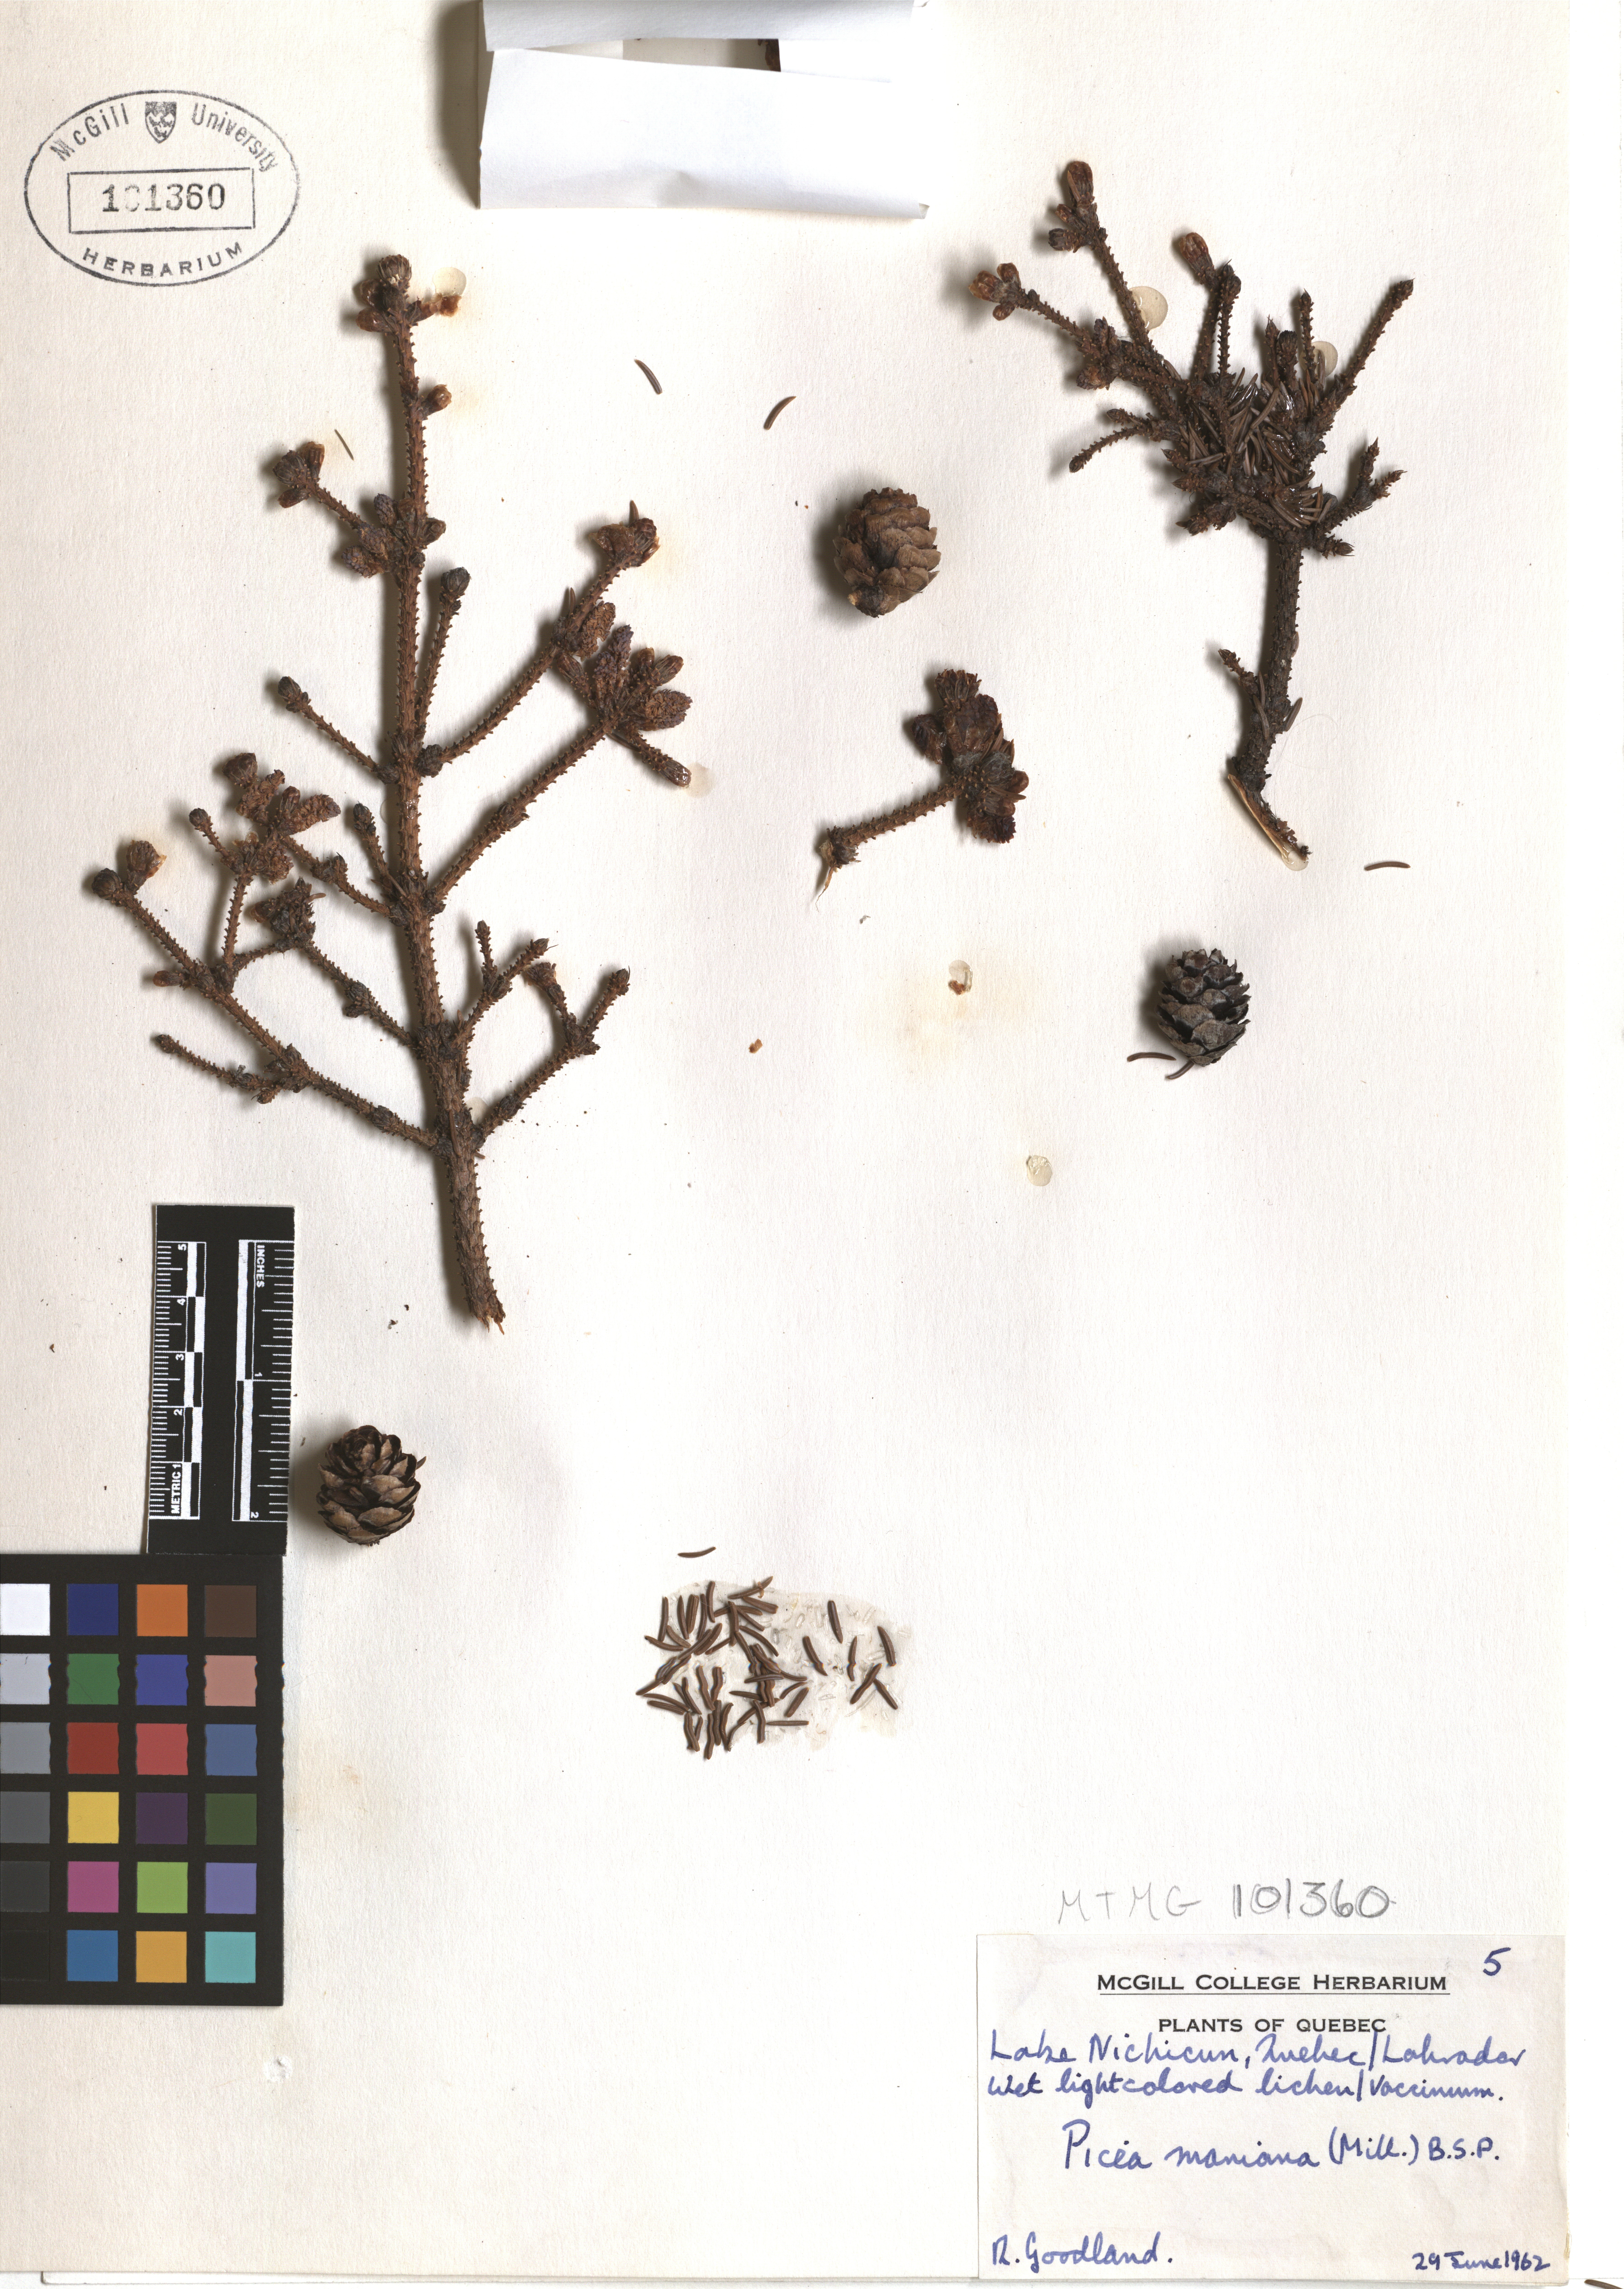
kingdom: Plantae
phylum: Tracheophyta
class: Pinopsida
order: Pinales
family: Pinaceae
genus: Picea
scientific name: Picea mariana
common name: Black spruce
